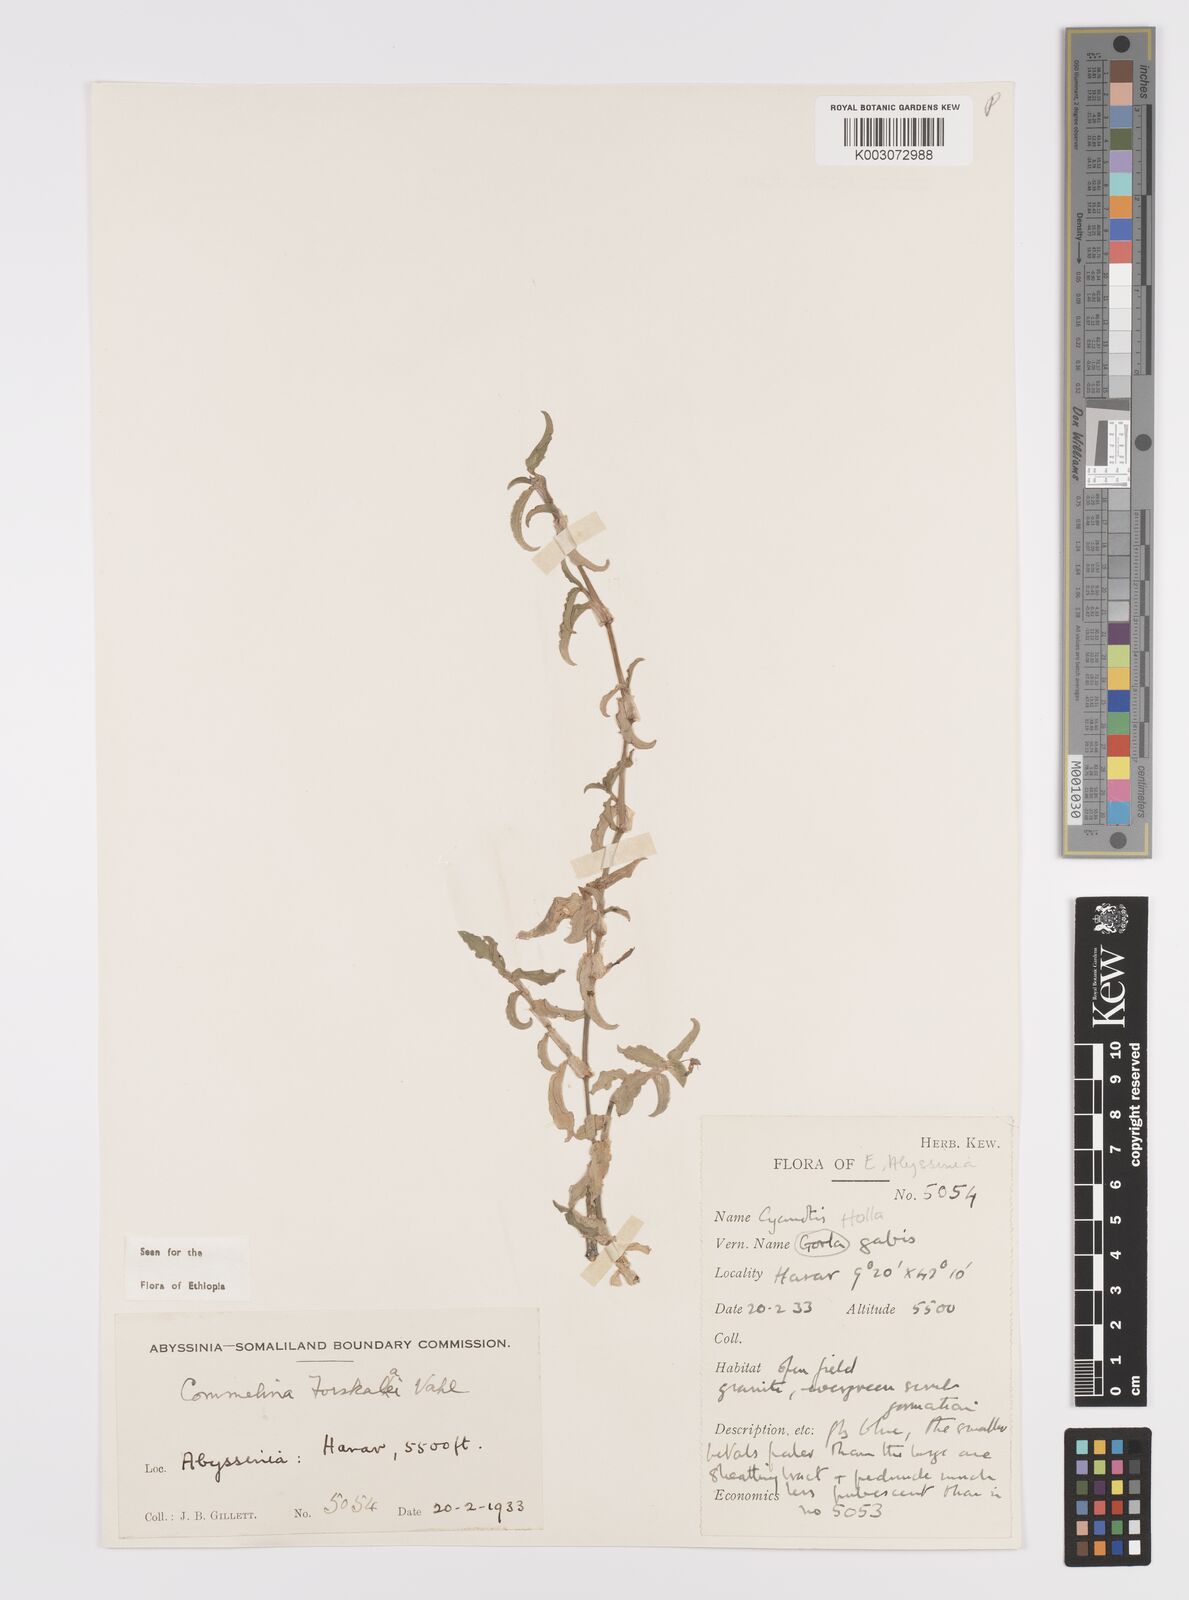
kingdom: Plantae
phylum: Tracheophyta
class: Liliopsida
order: Commelinales
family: Commelinaceae
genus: Commelina
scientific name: Commelina forskaolii
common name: Rat's ear
